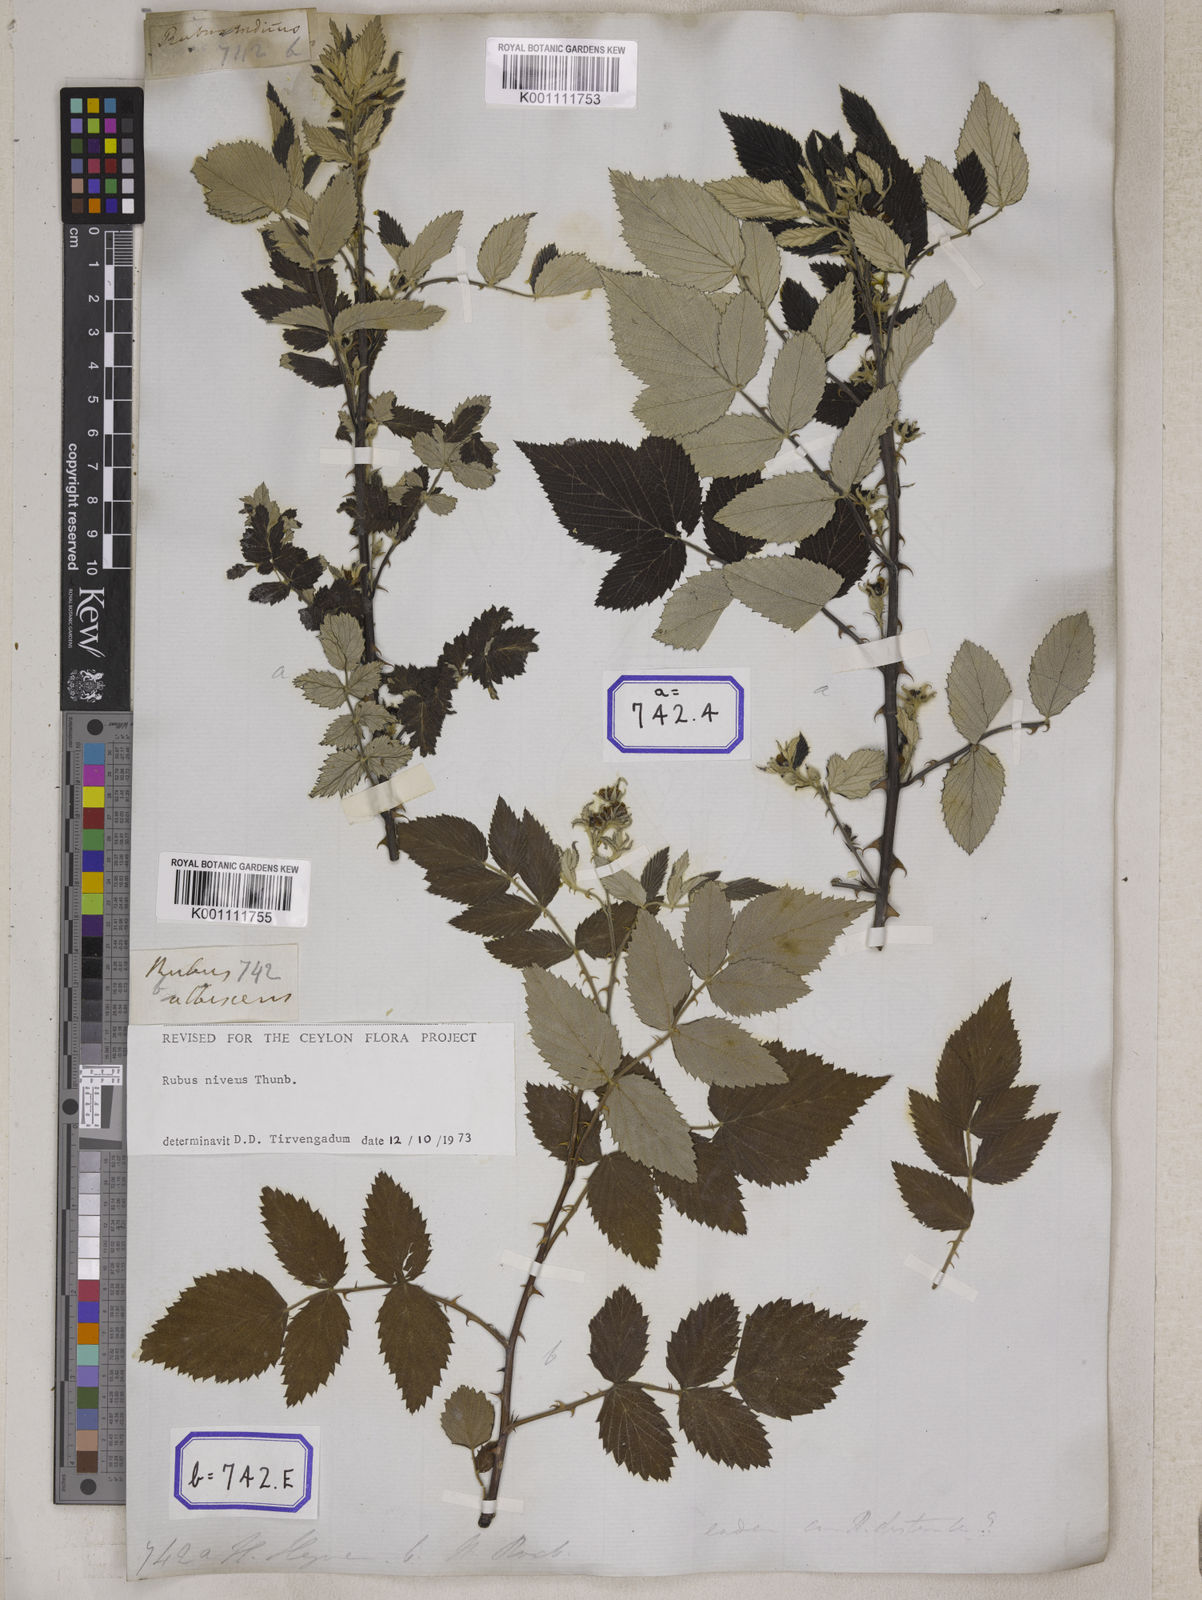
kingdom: Plantae
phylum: Tracheophyta
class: Magnoliopsida
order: Rosales
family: Rosaceae
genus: Rubus
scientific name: Rubus niveus
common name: Snowpeaks raspberry
